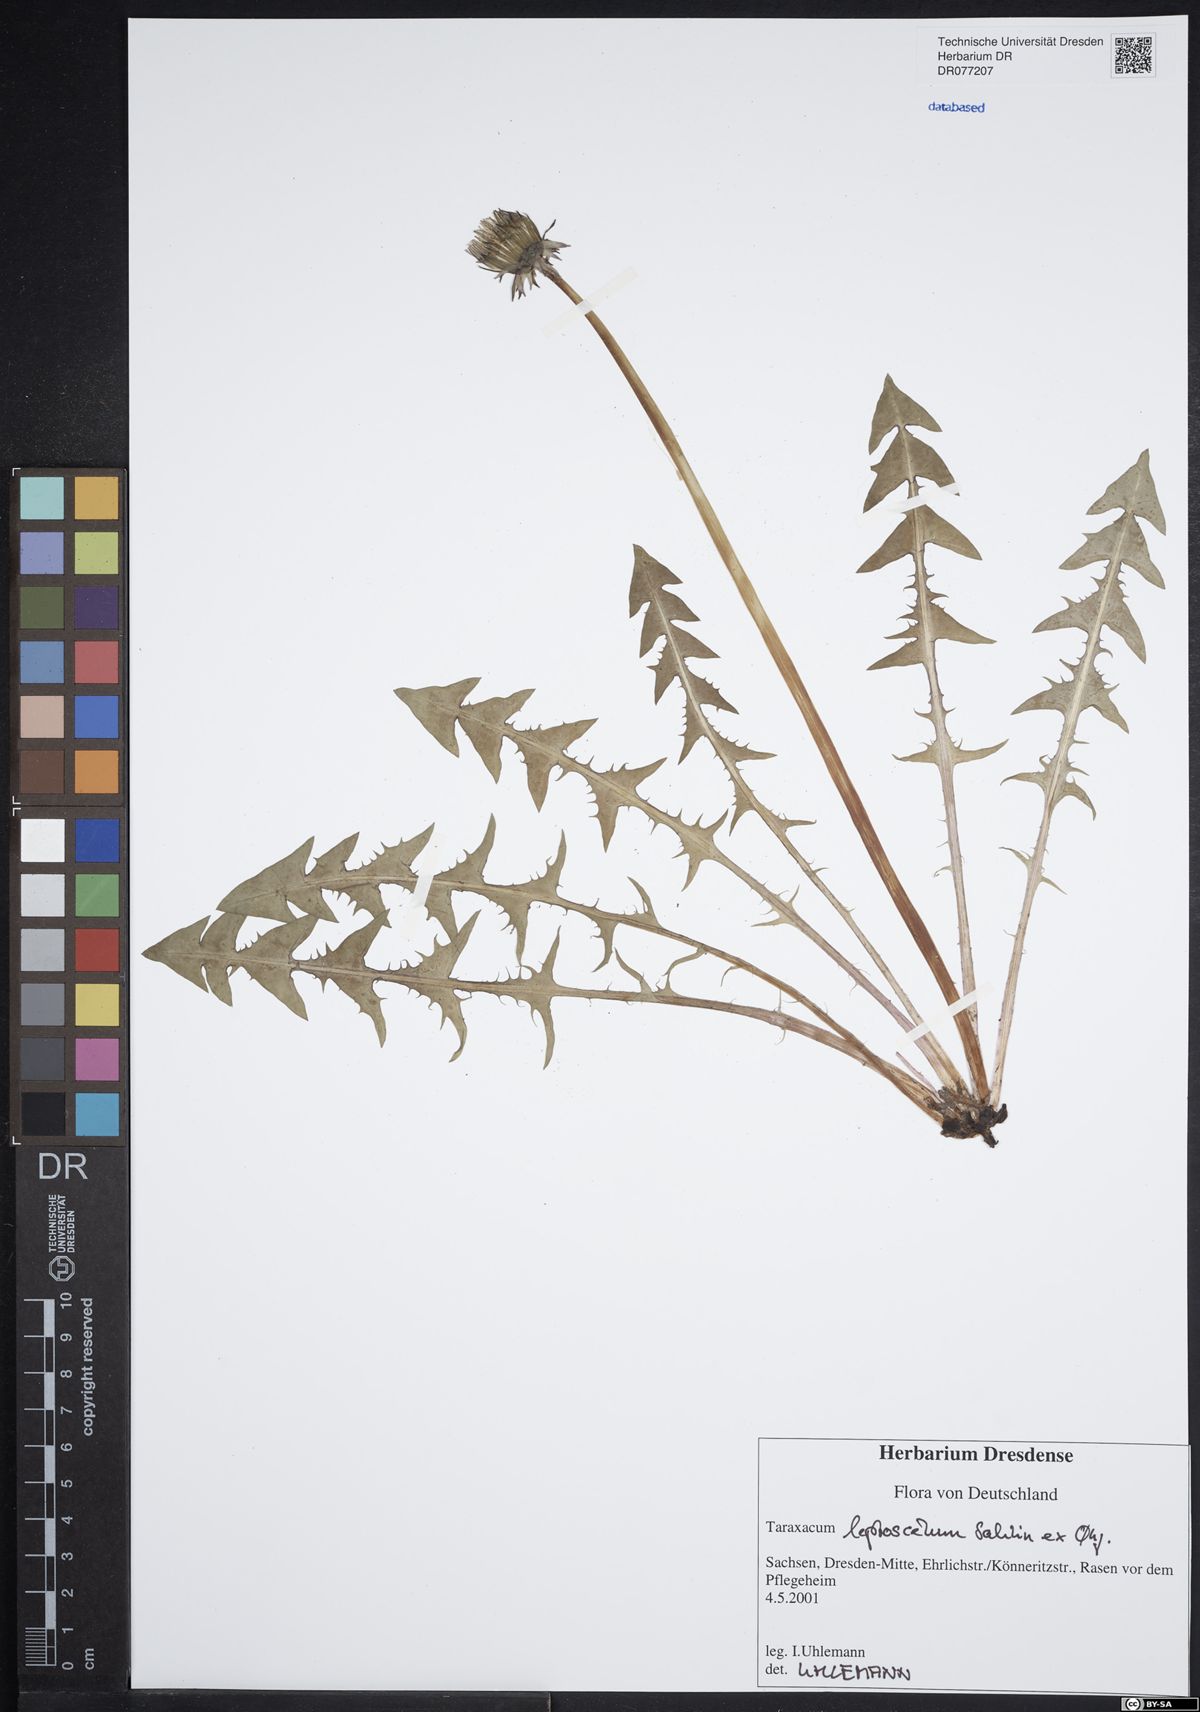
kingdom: Plantae
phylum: Tracheophyta
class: Magnoliopsida
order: Asterales
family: Asteraceae
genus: Taraxacum
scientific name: Taraxacum leptoscelum
